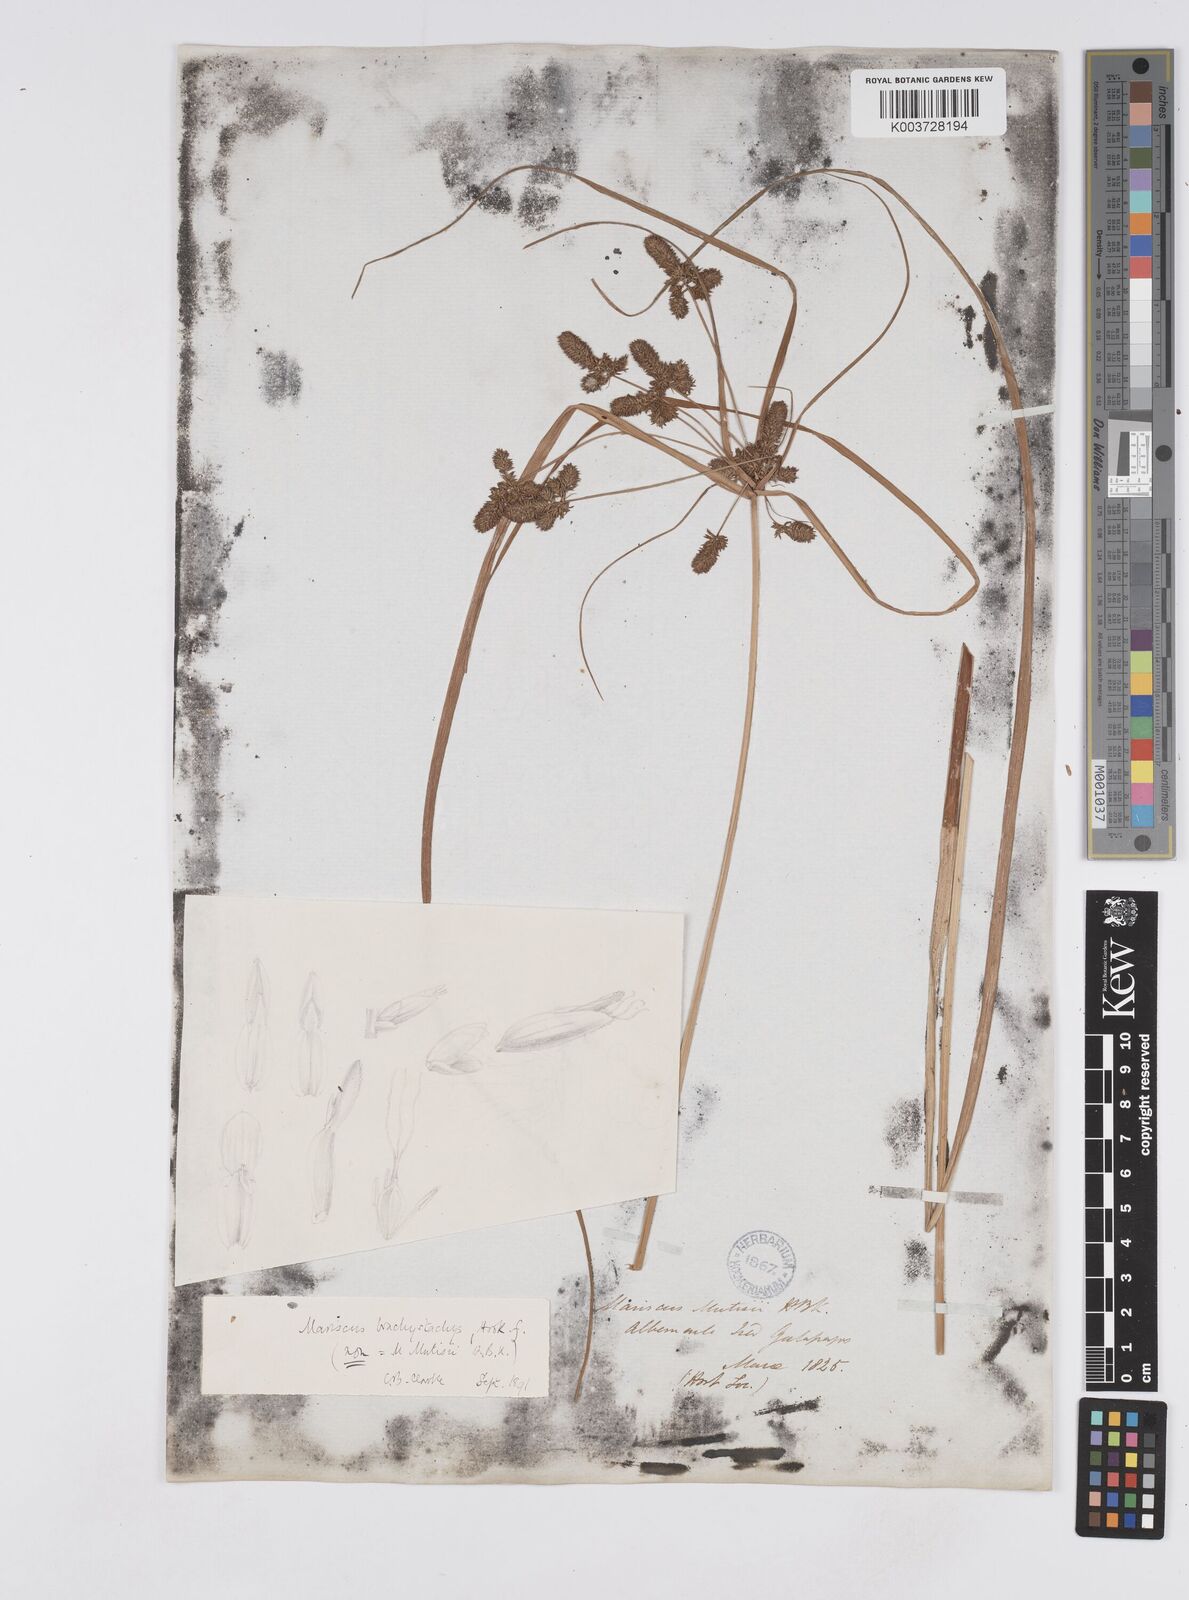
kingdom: Plantae
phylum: Tracheophyta
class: Liliopsida
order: Poales
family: Cyperaceae
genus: Cyperus
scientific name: Cyperus anderssonii
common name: Andersson's sedge
